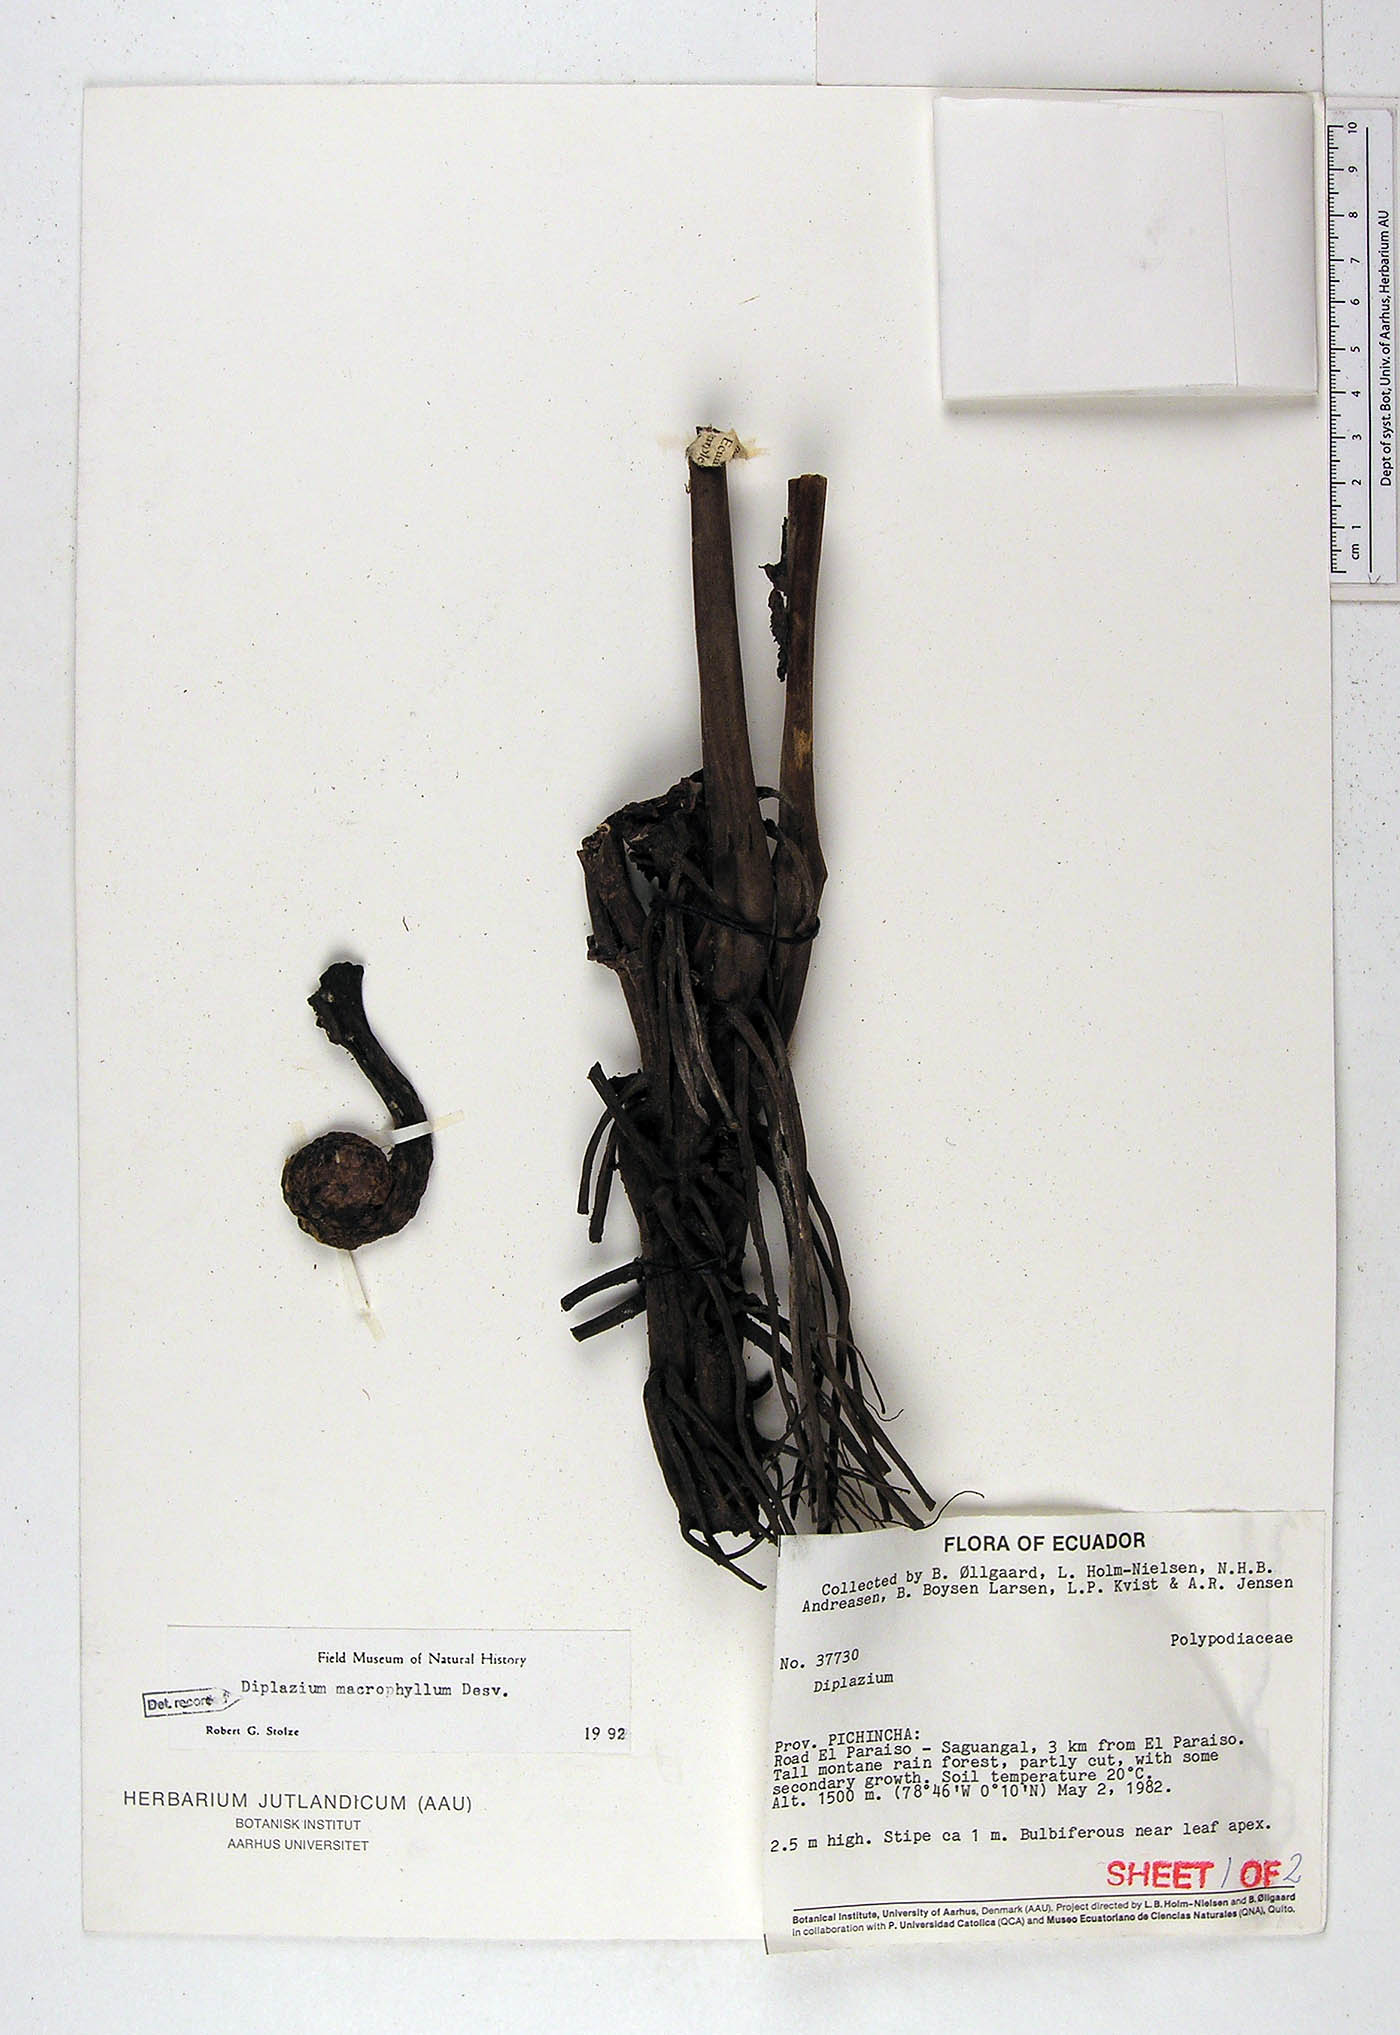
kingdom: Plantae
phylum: Tracheophyta
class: Polypodiopsida
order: Polypodiales
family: Athyriaceae
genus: Diplazium
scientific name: Diplazium macrophyllum
